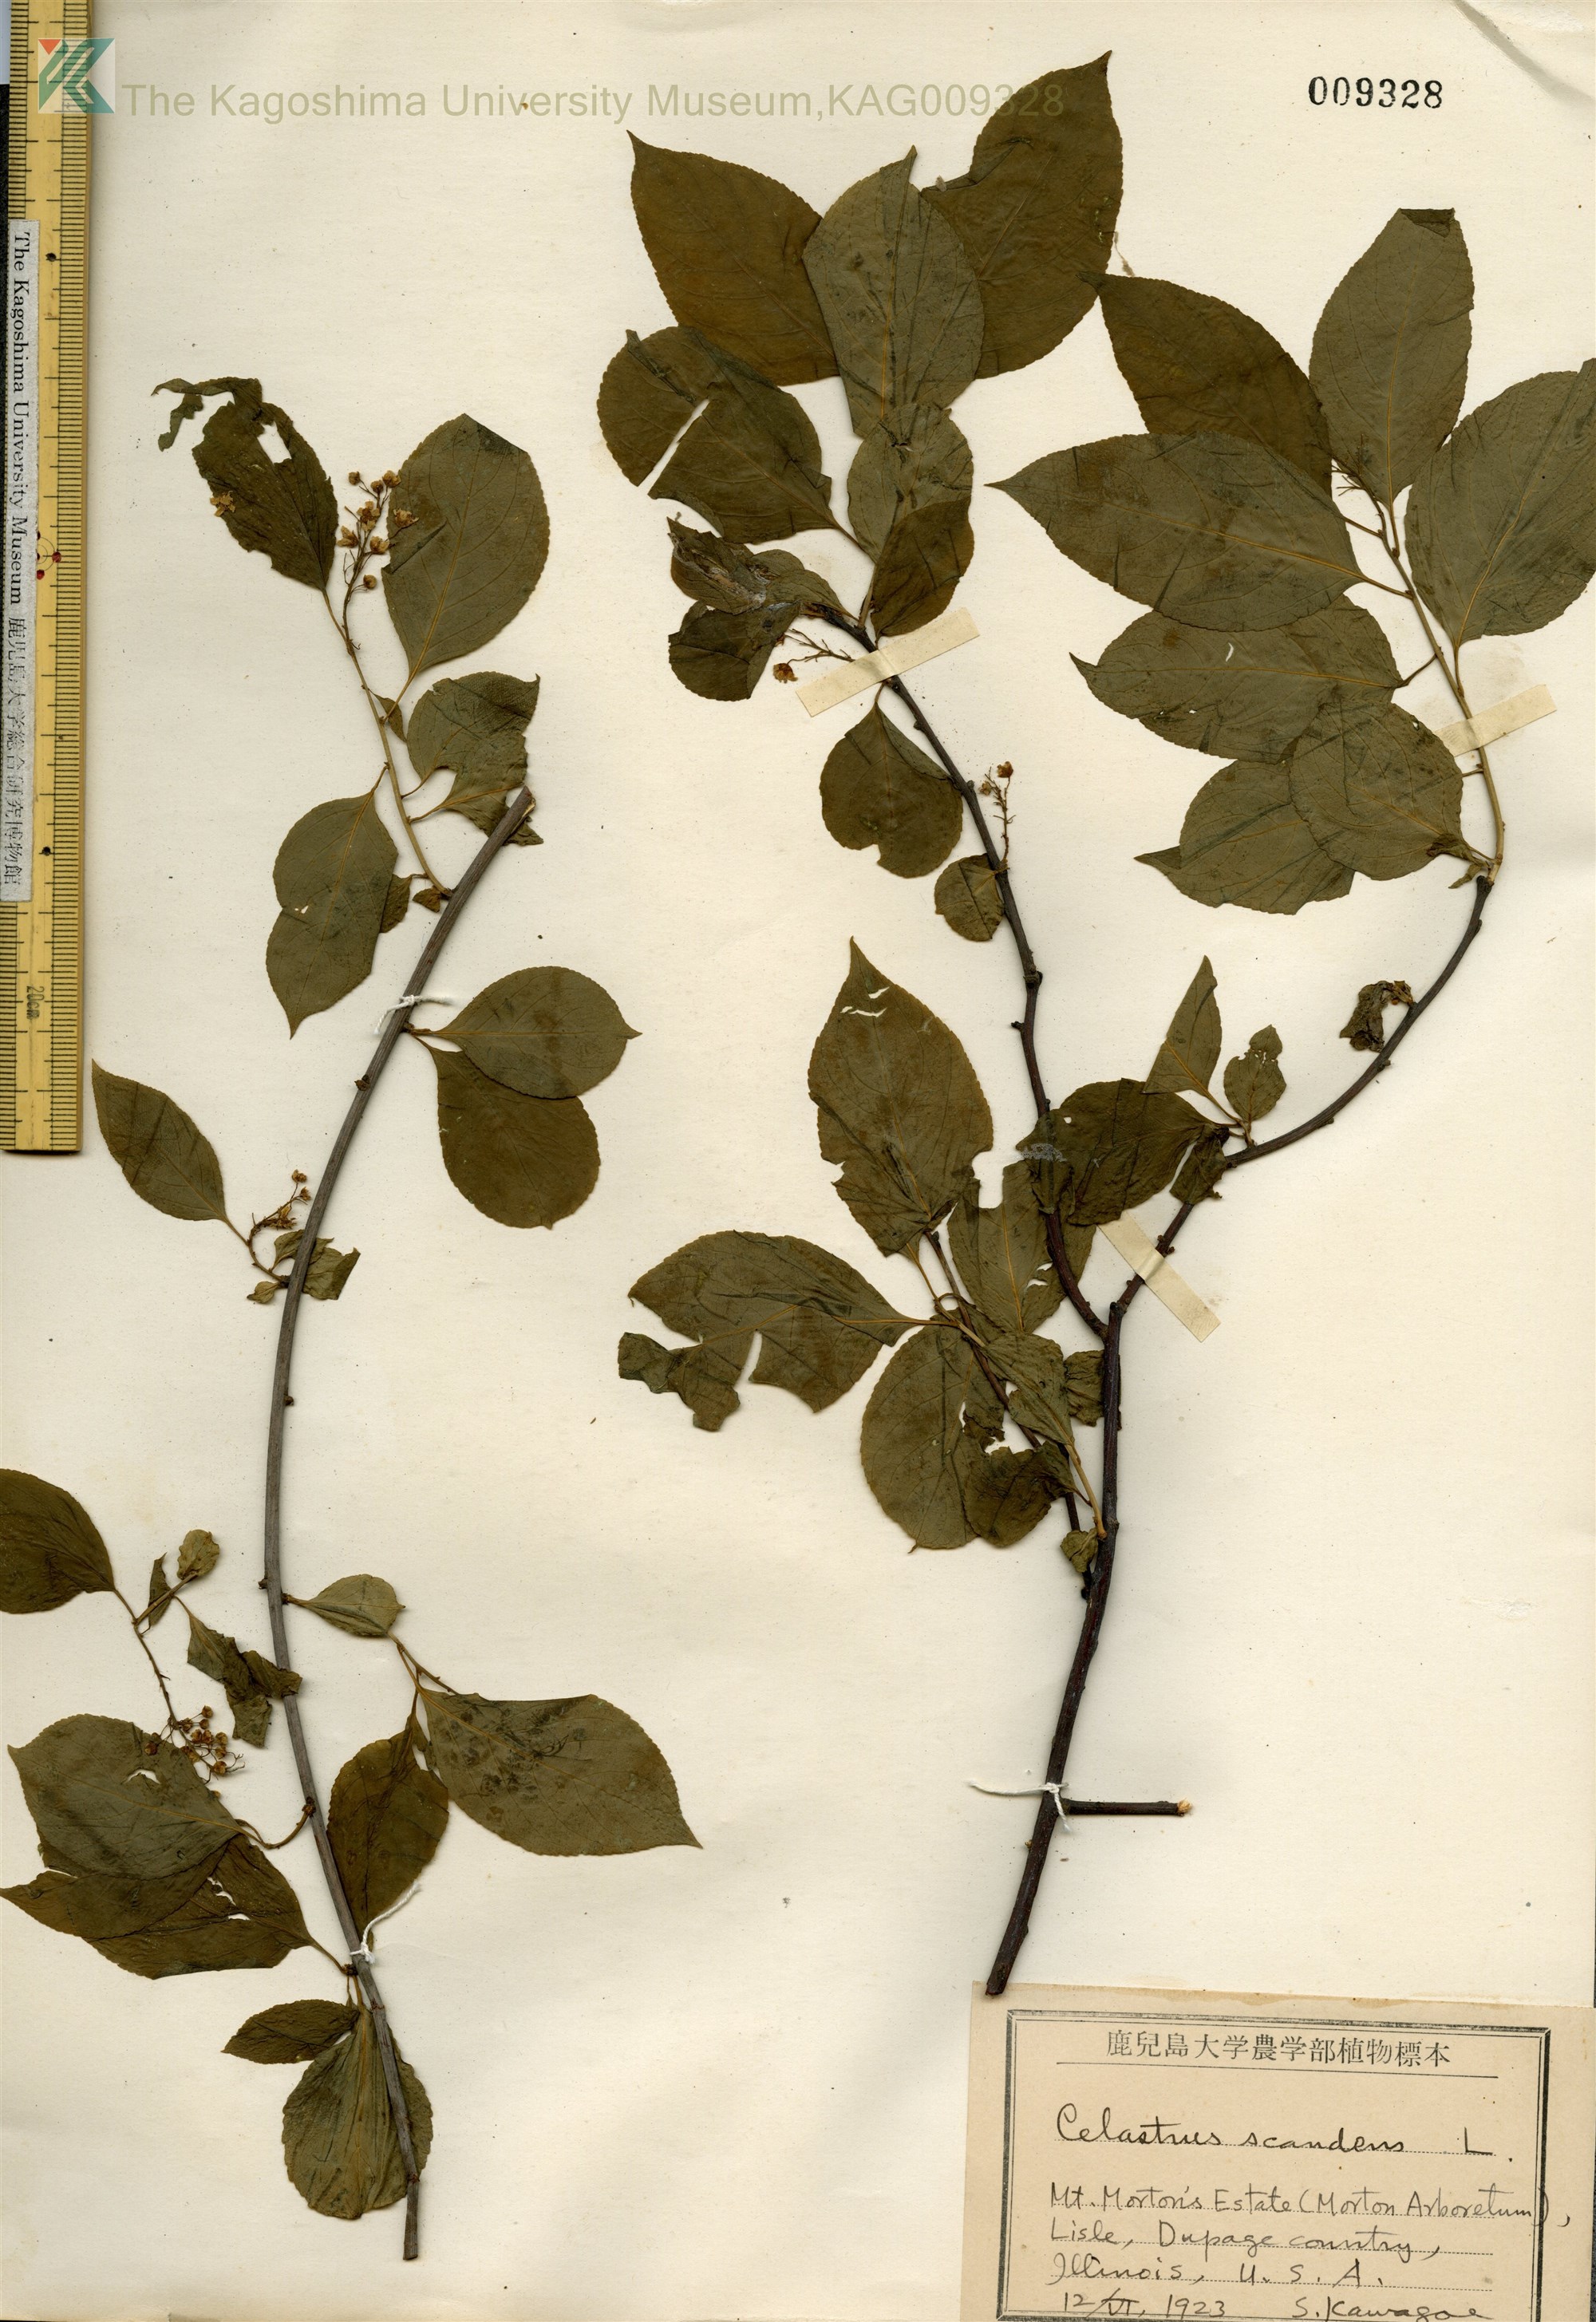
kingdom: Plantae
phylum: Tracheophyta
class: Magnoliopsida
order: Celastrales
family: Celastraceae
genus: Celastrus
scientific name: Celastrus scandens
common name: American bittersweet
